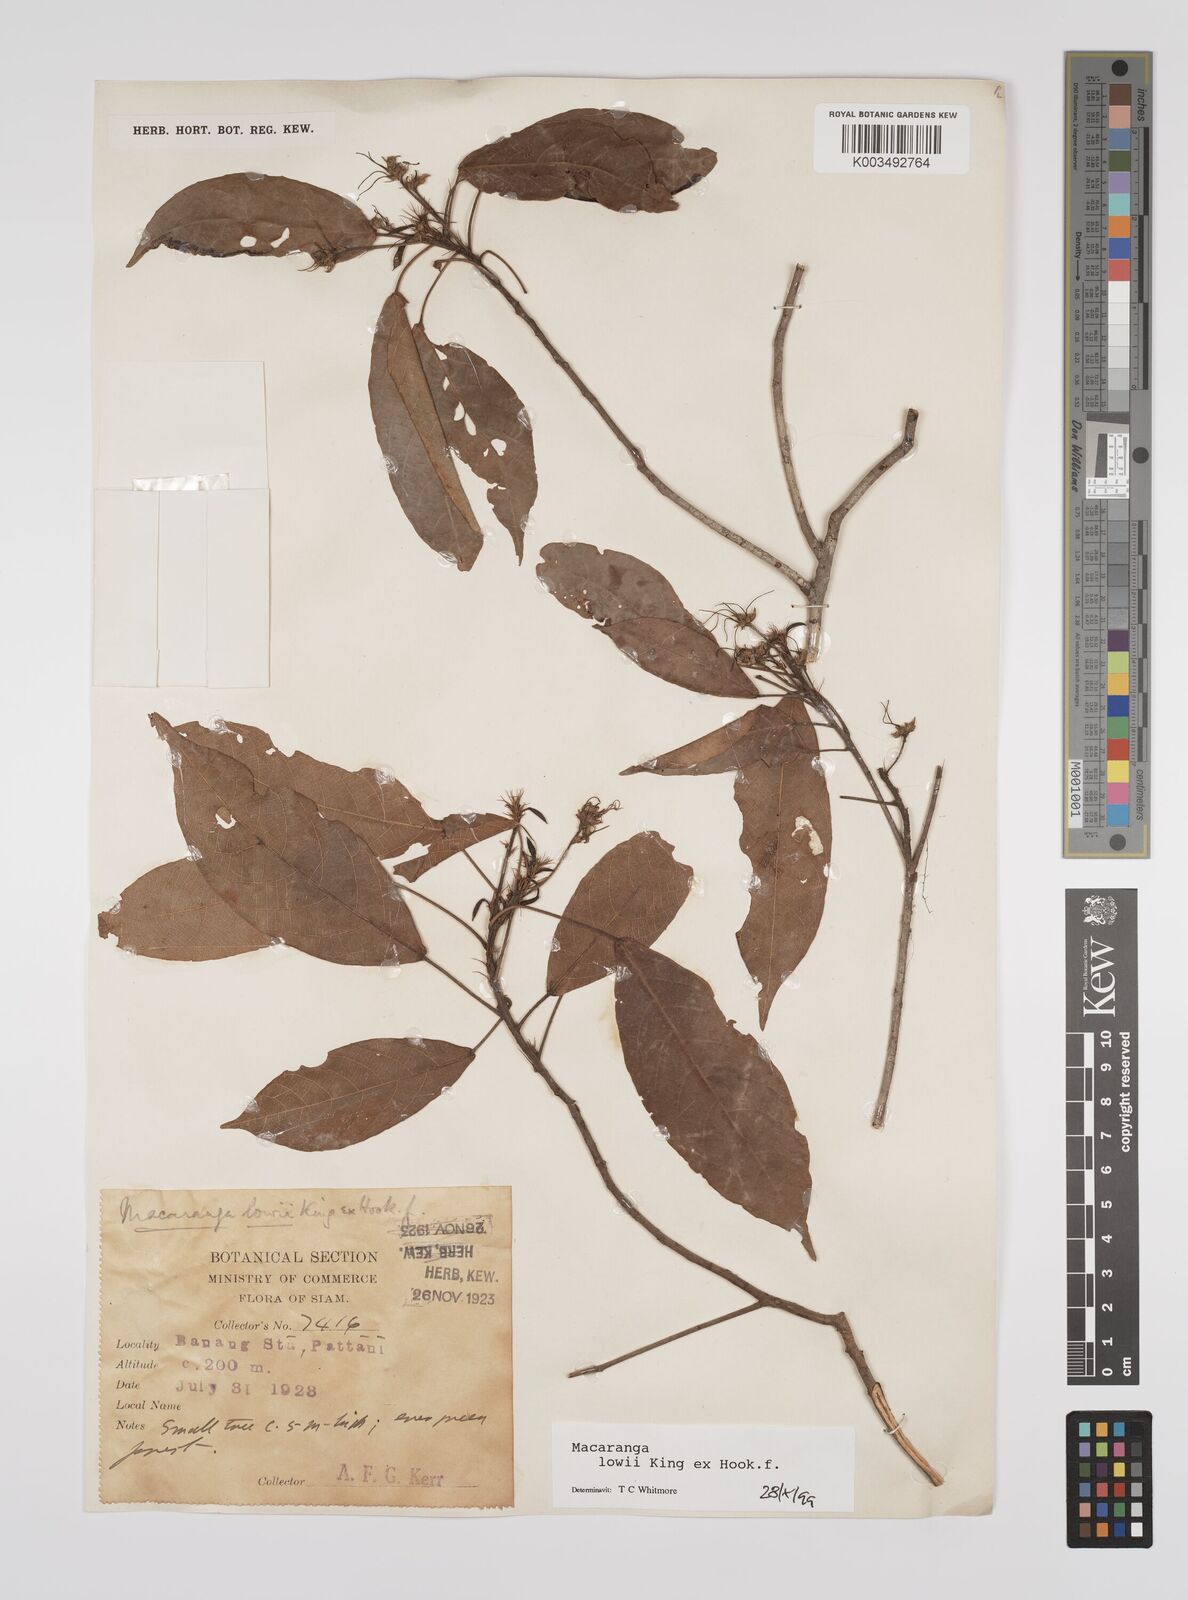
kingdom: Plantae
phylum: Tracheophyta
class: Magnoliopsida
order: Malpighiales
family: Euphorbiaceae
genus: Macaranga
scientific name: Macaranga lowii
